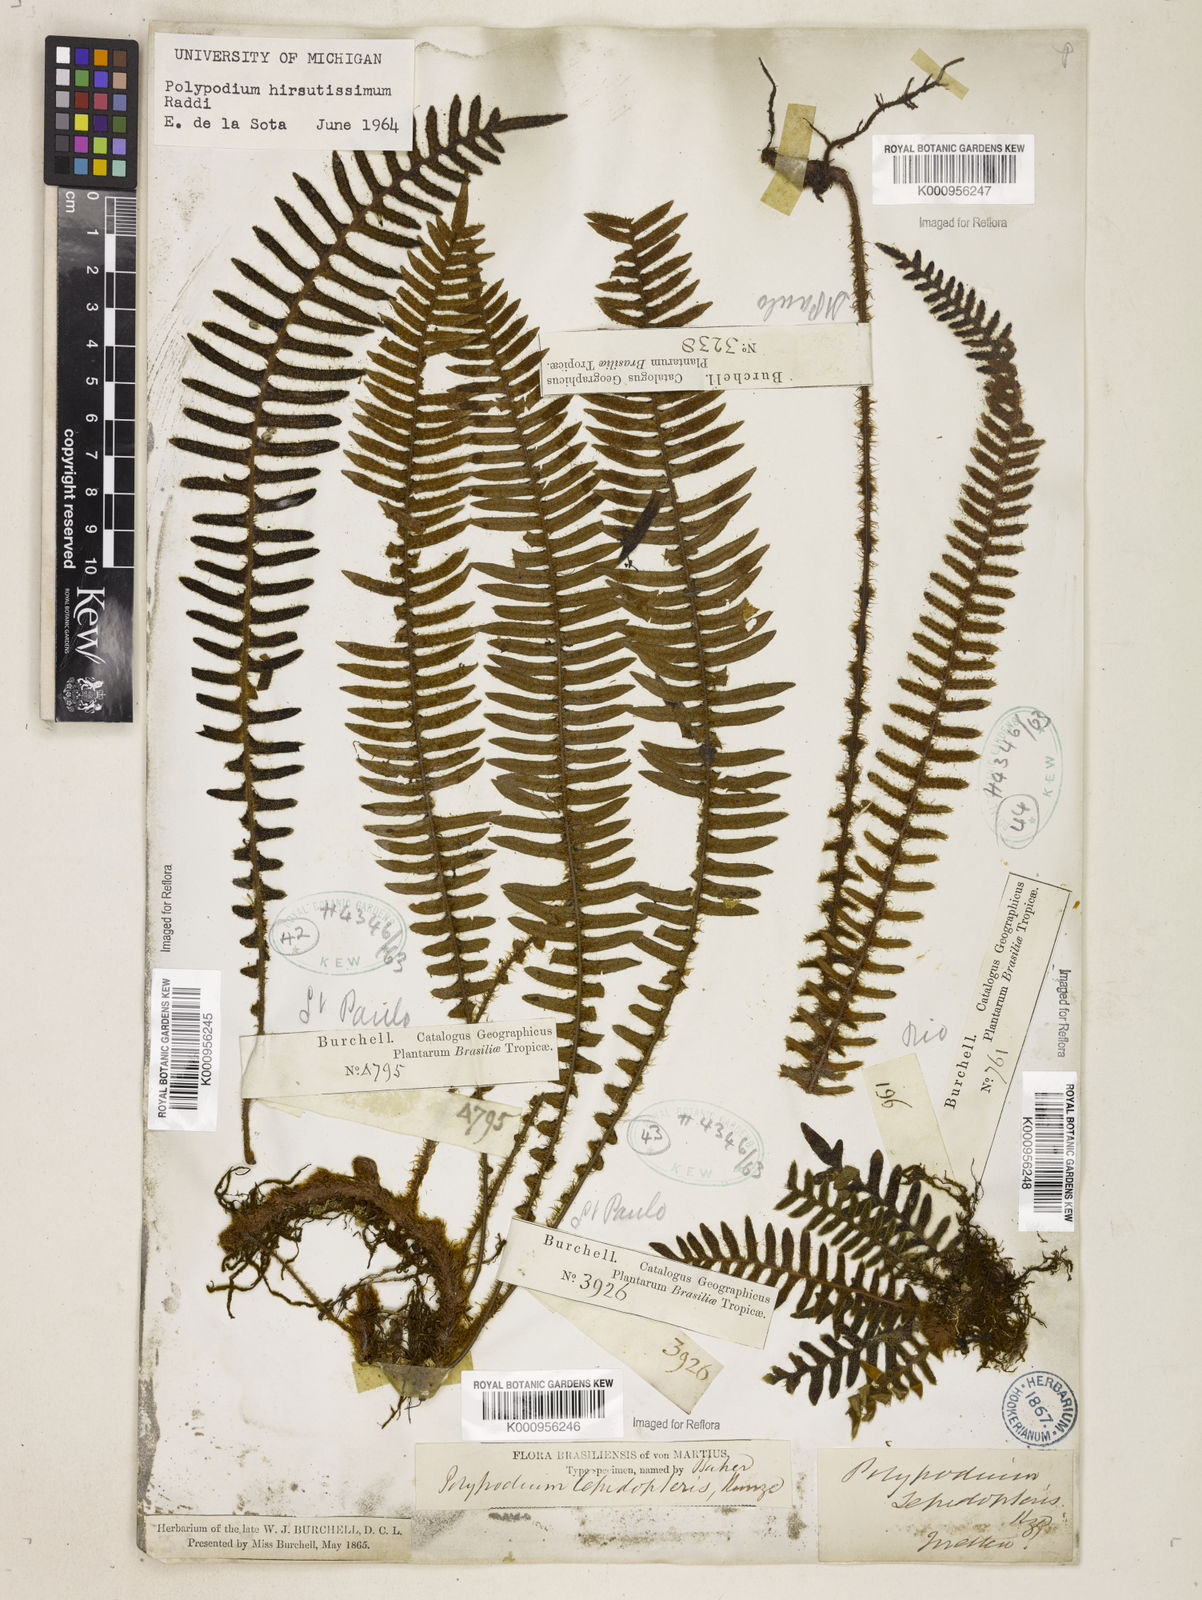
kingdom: Plantae
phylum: Tracheophyta
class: Polypodiopsida
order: Polypodiales
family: Polypodiaceae
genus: Pleopeltis
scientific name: Pleopeltis hirsutissima
